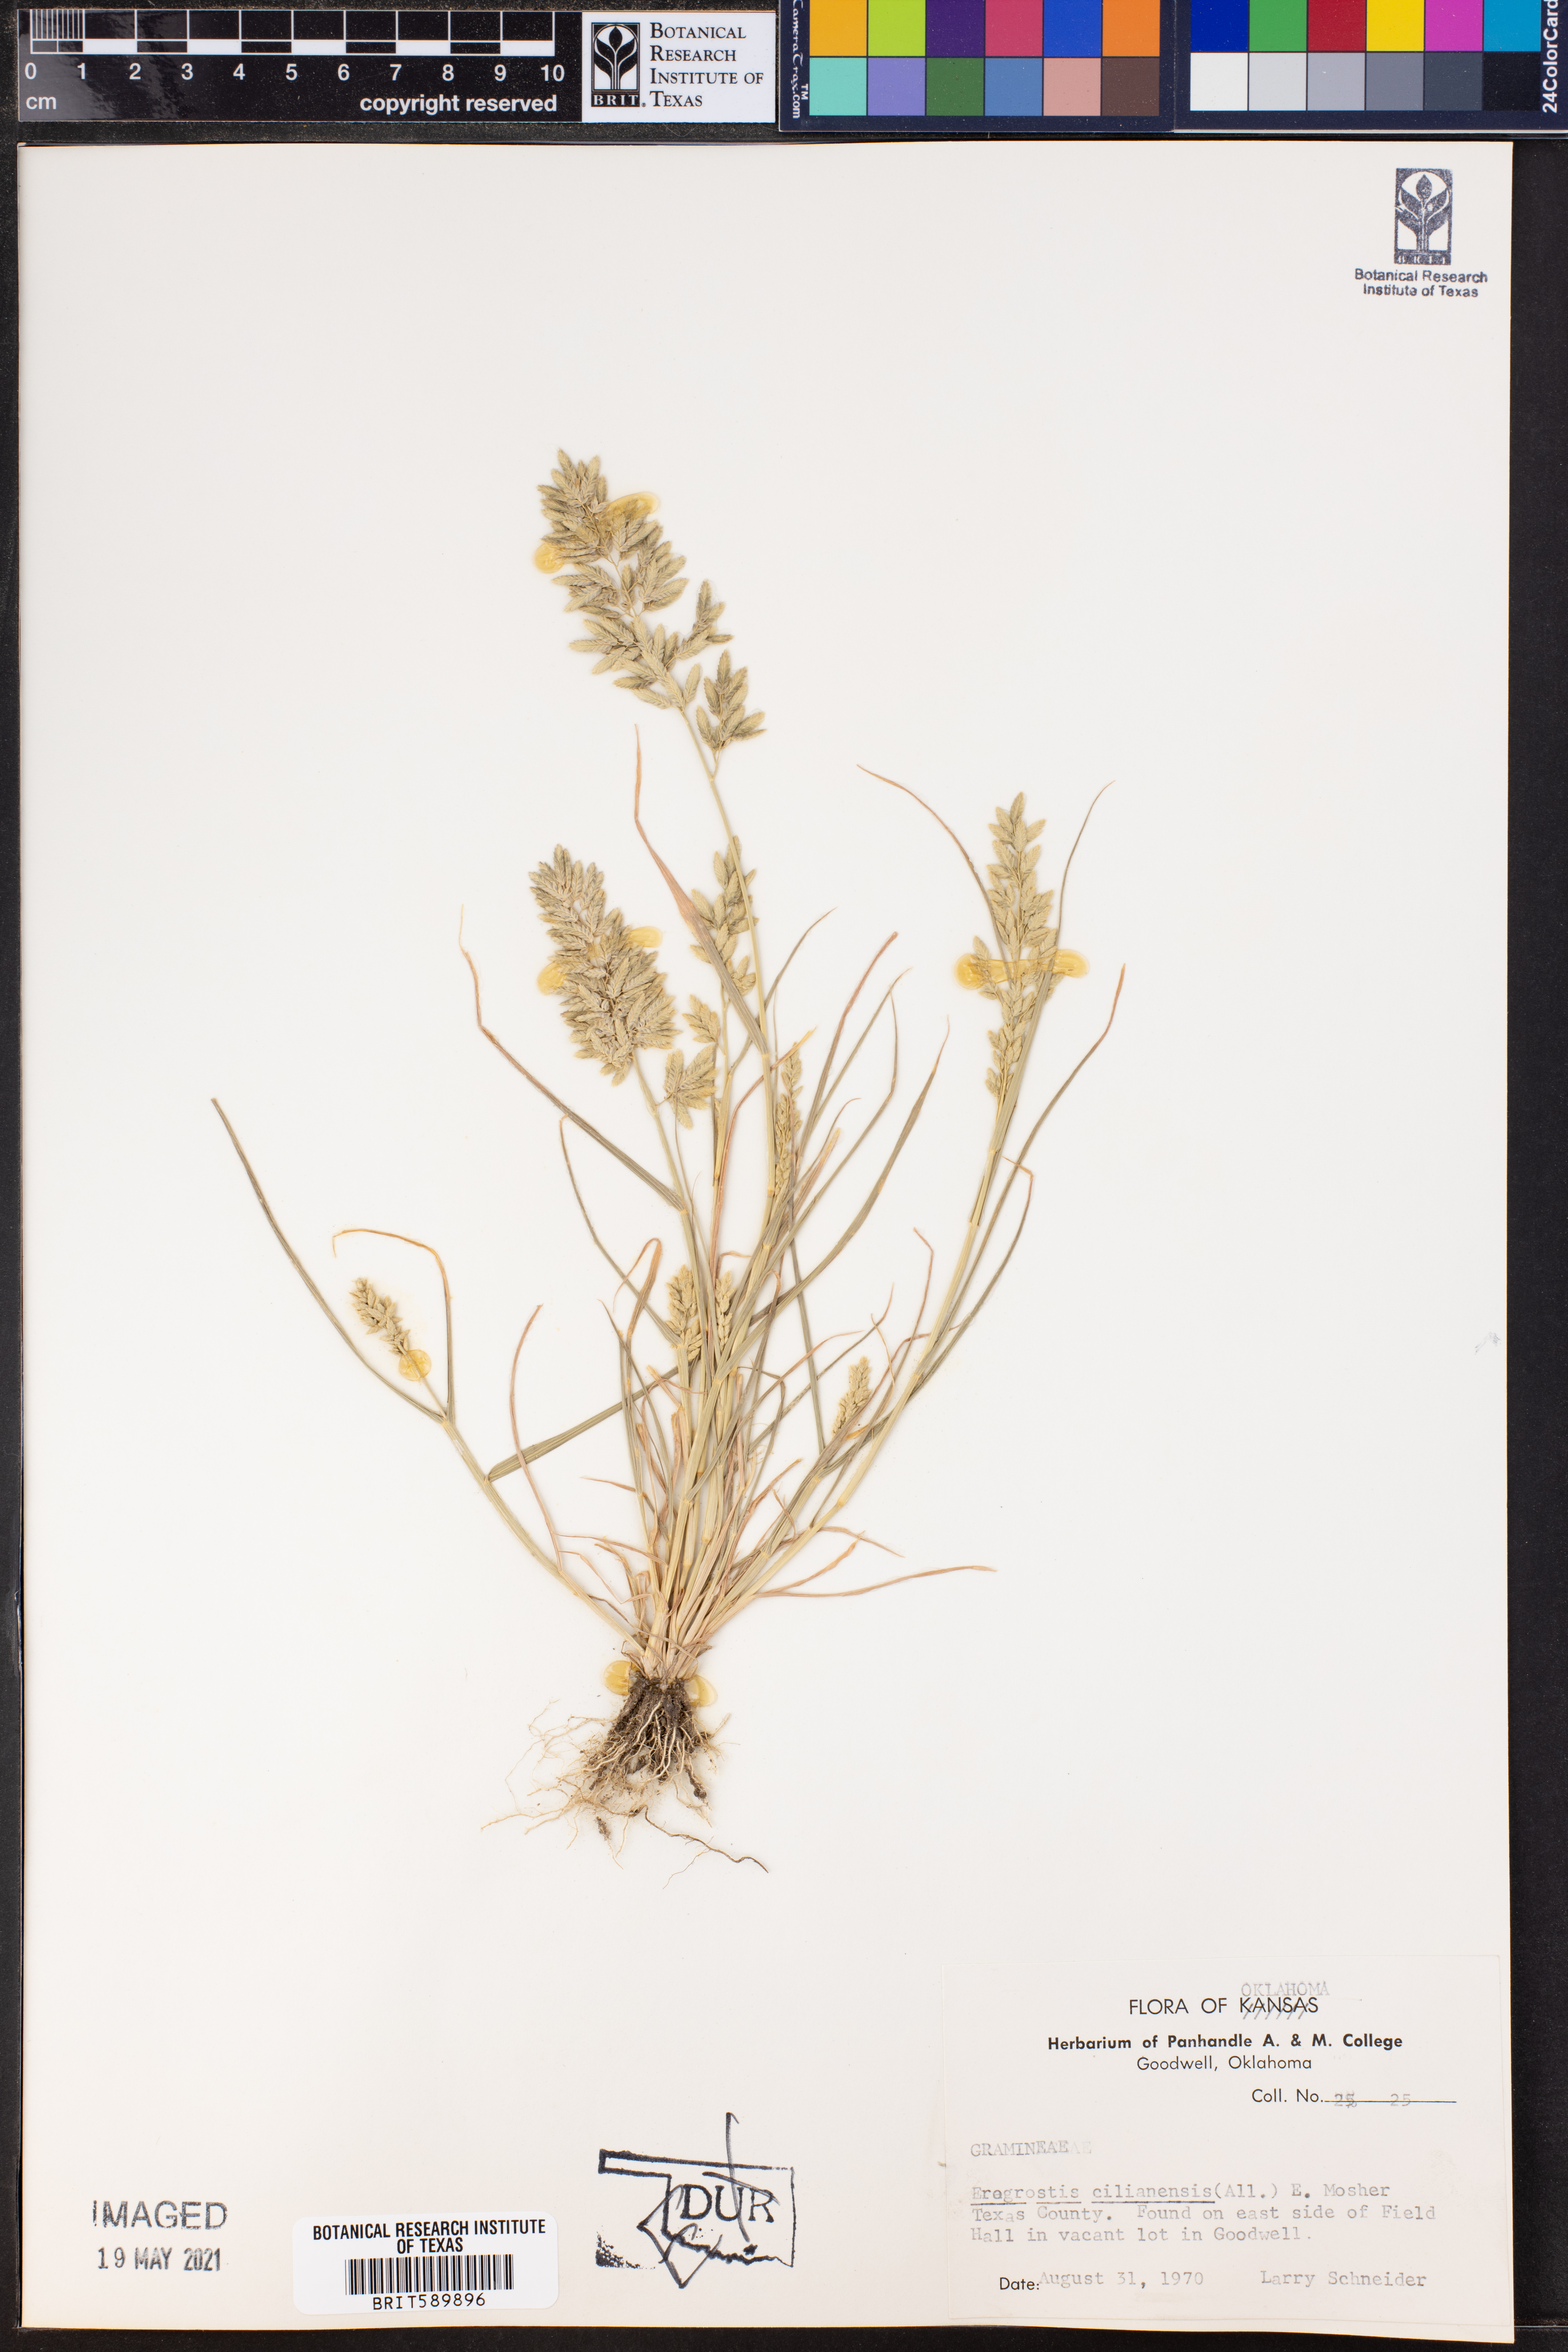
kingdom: Plantae
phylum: Tracheophyta
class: Liliopsida
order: Poales
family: Poaceae
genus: Eragrostis
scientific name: Eragrostis cilianensis
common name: Stinkgrass
